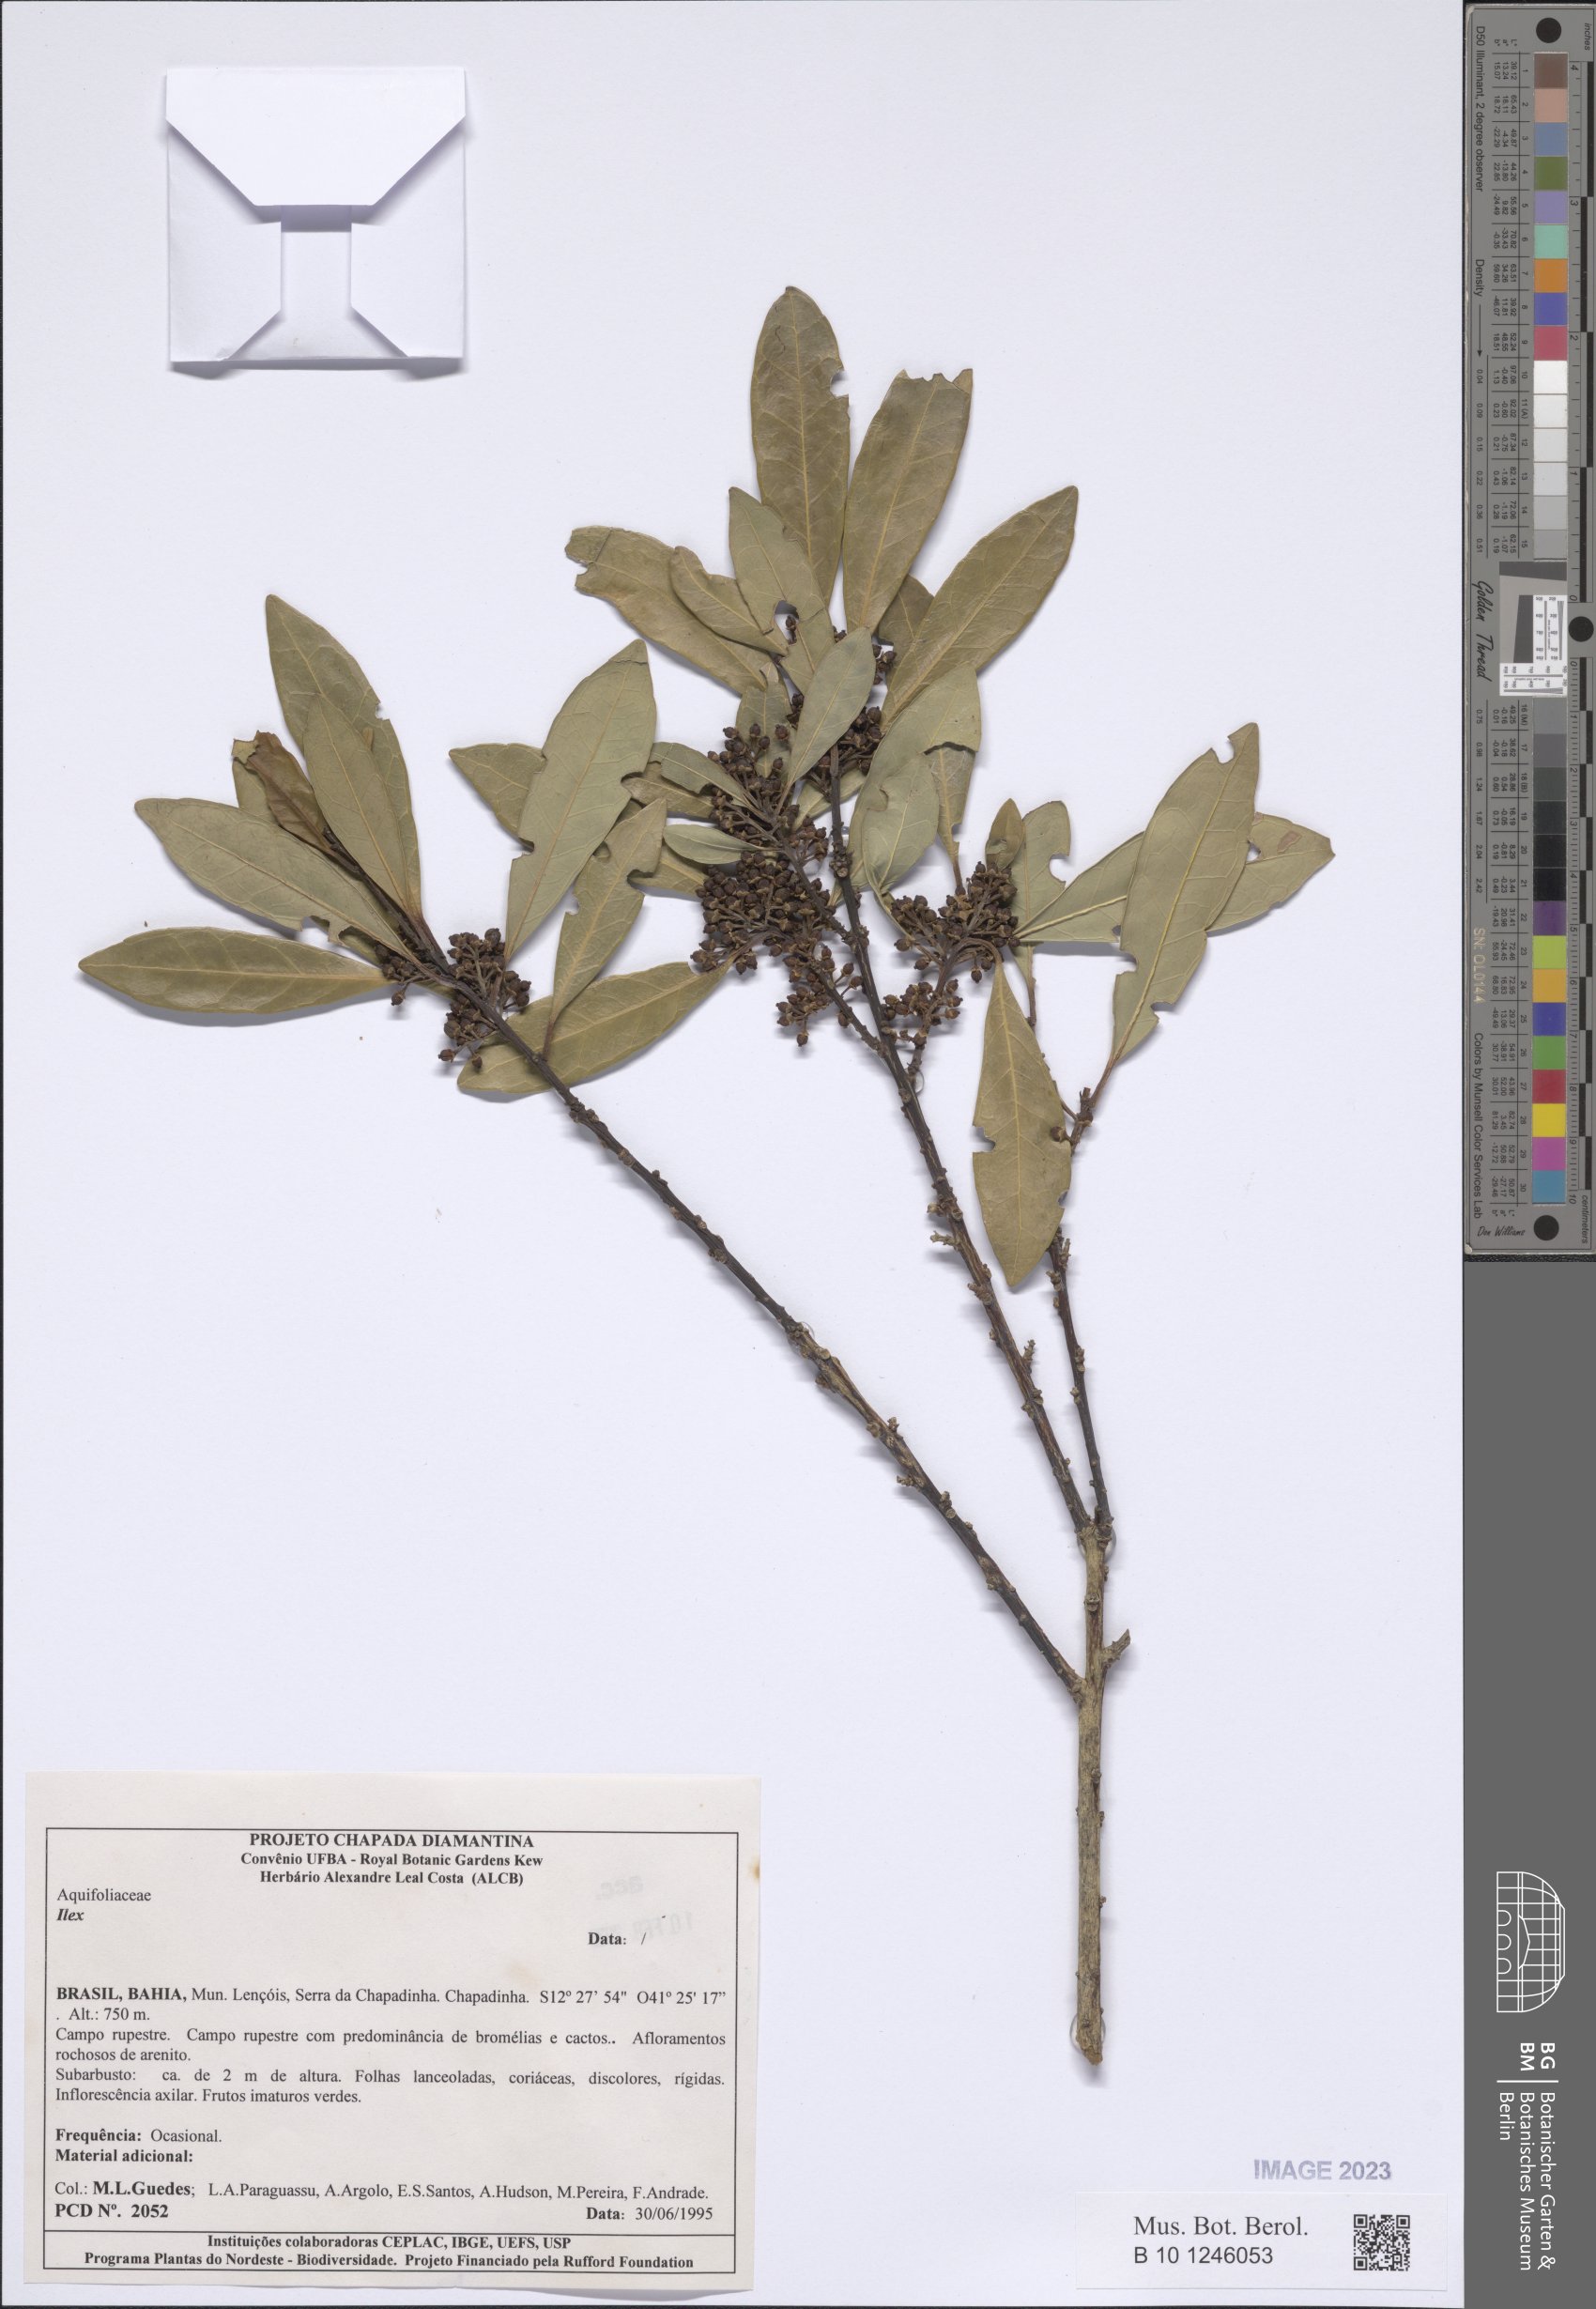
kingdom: Plantae
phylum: Tracheophyta
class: Magnoliopsida
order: Aquifoliales
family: Aquifoliaceae
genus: Ilex
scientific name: Ilex
